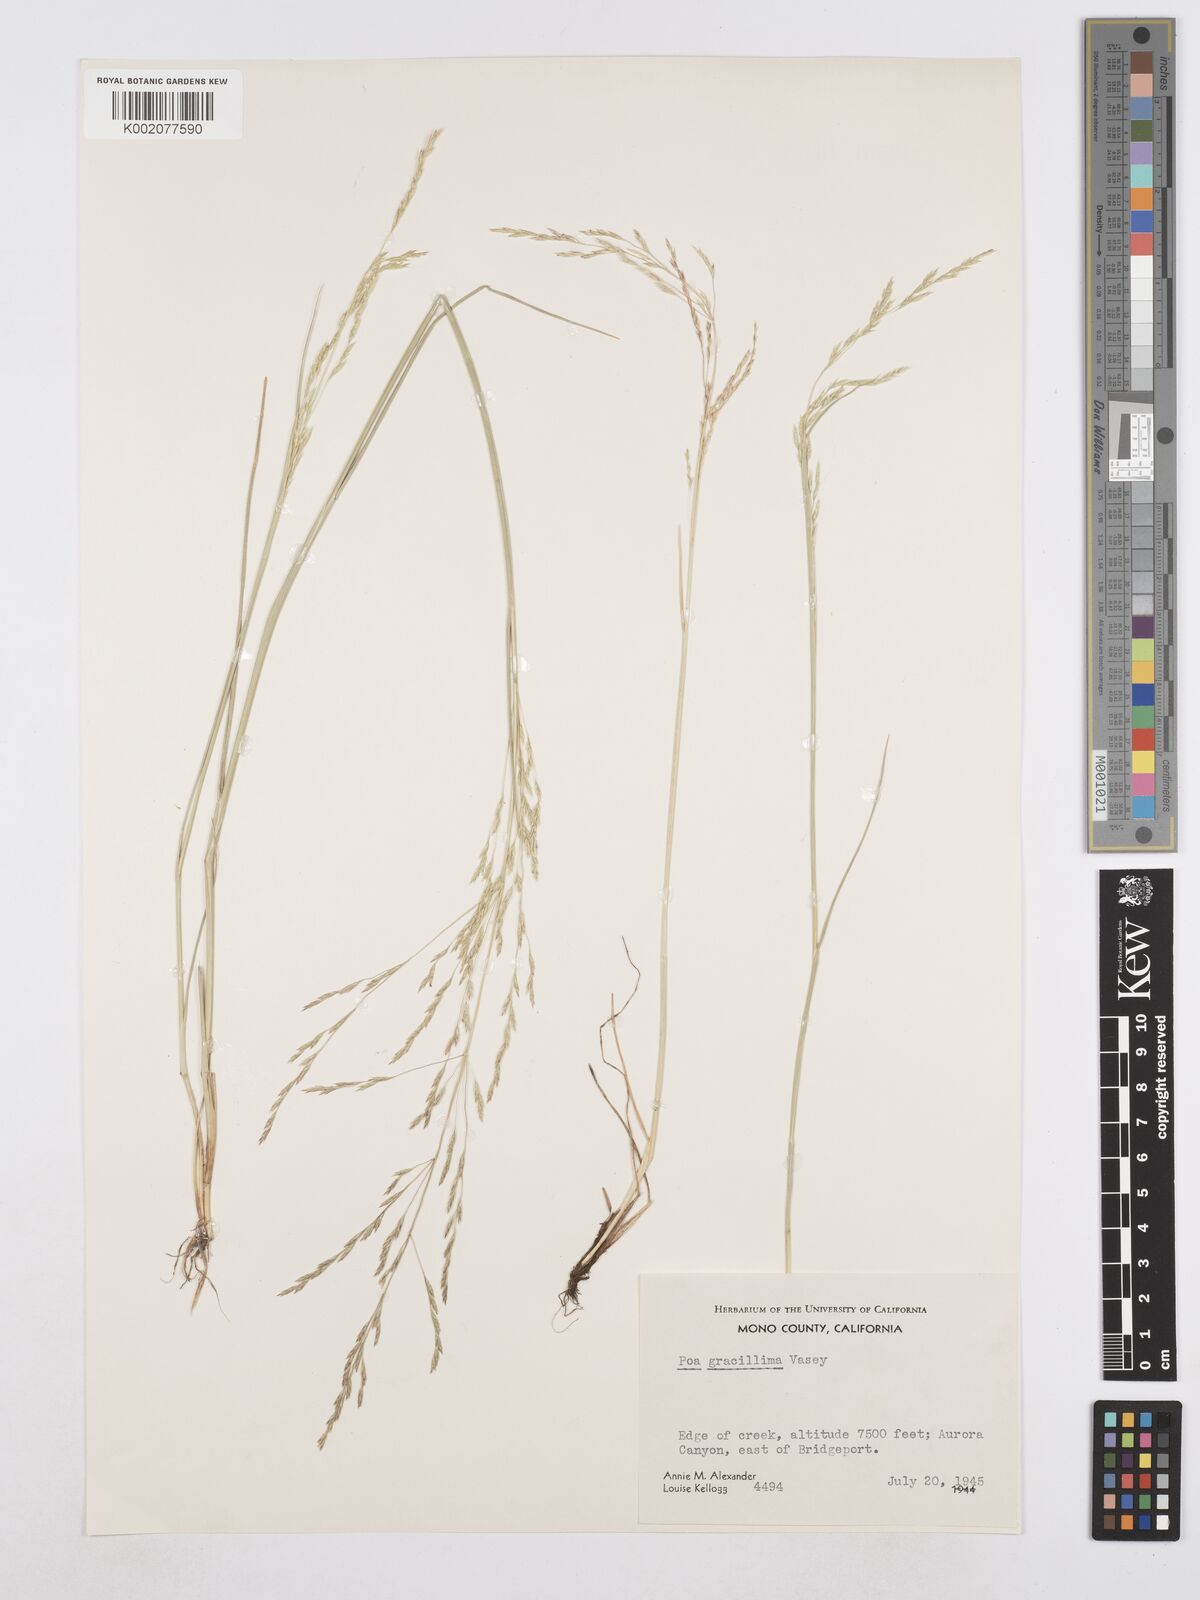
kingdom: Plantae
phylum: Tracheophyta
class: Liliopsida
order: Poales
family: Poaceae
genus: Poa
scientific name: Poa secunda
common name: Sandberg bluegrass
